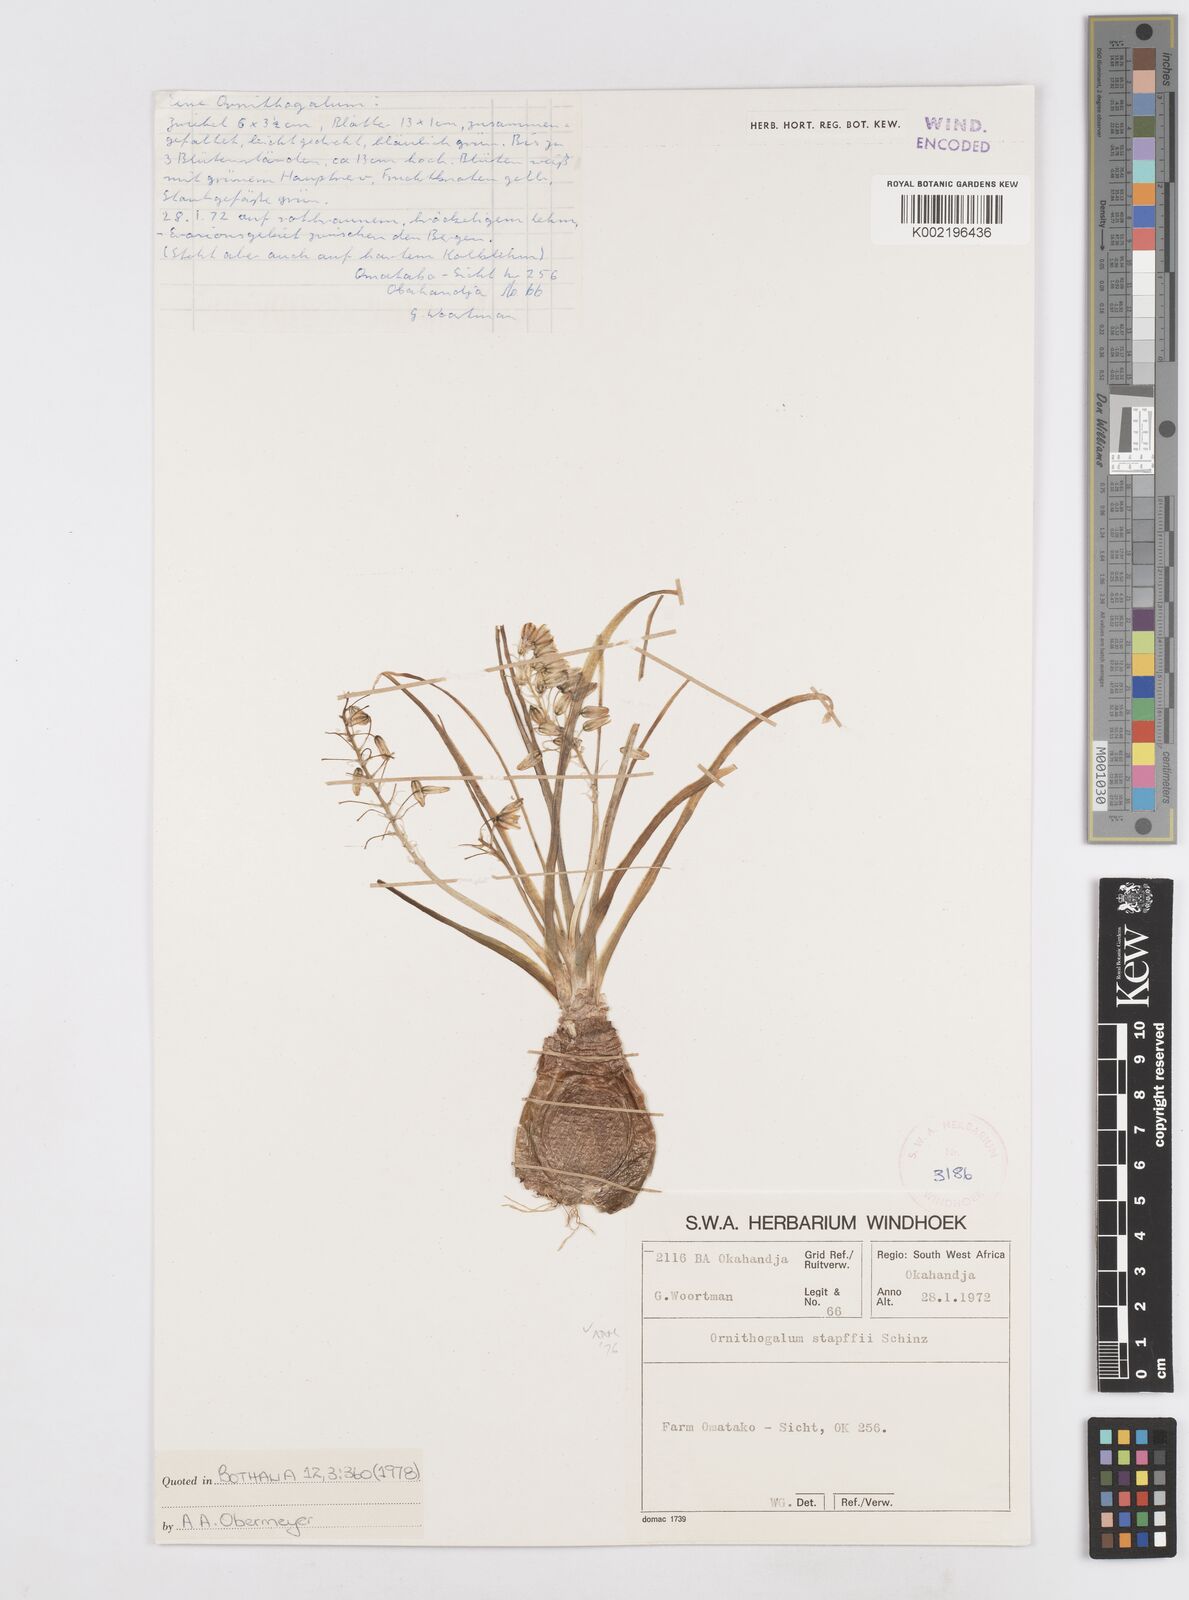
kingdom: Plantae
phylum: Tracheophyta
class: Liliopsida
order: Asparagales
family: Asparagaceae
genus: Albuca
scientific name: Albuca stapffii
